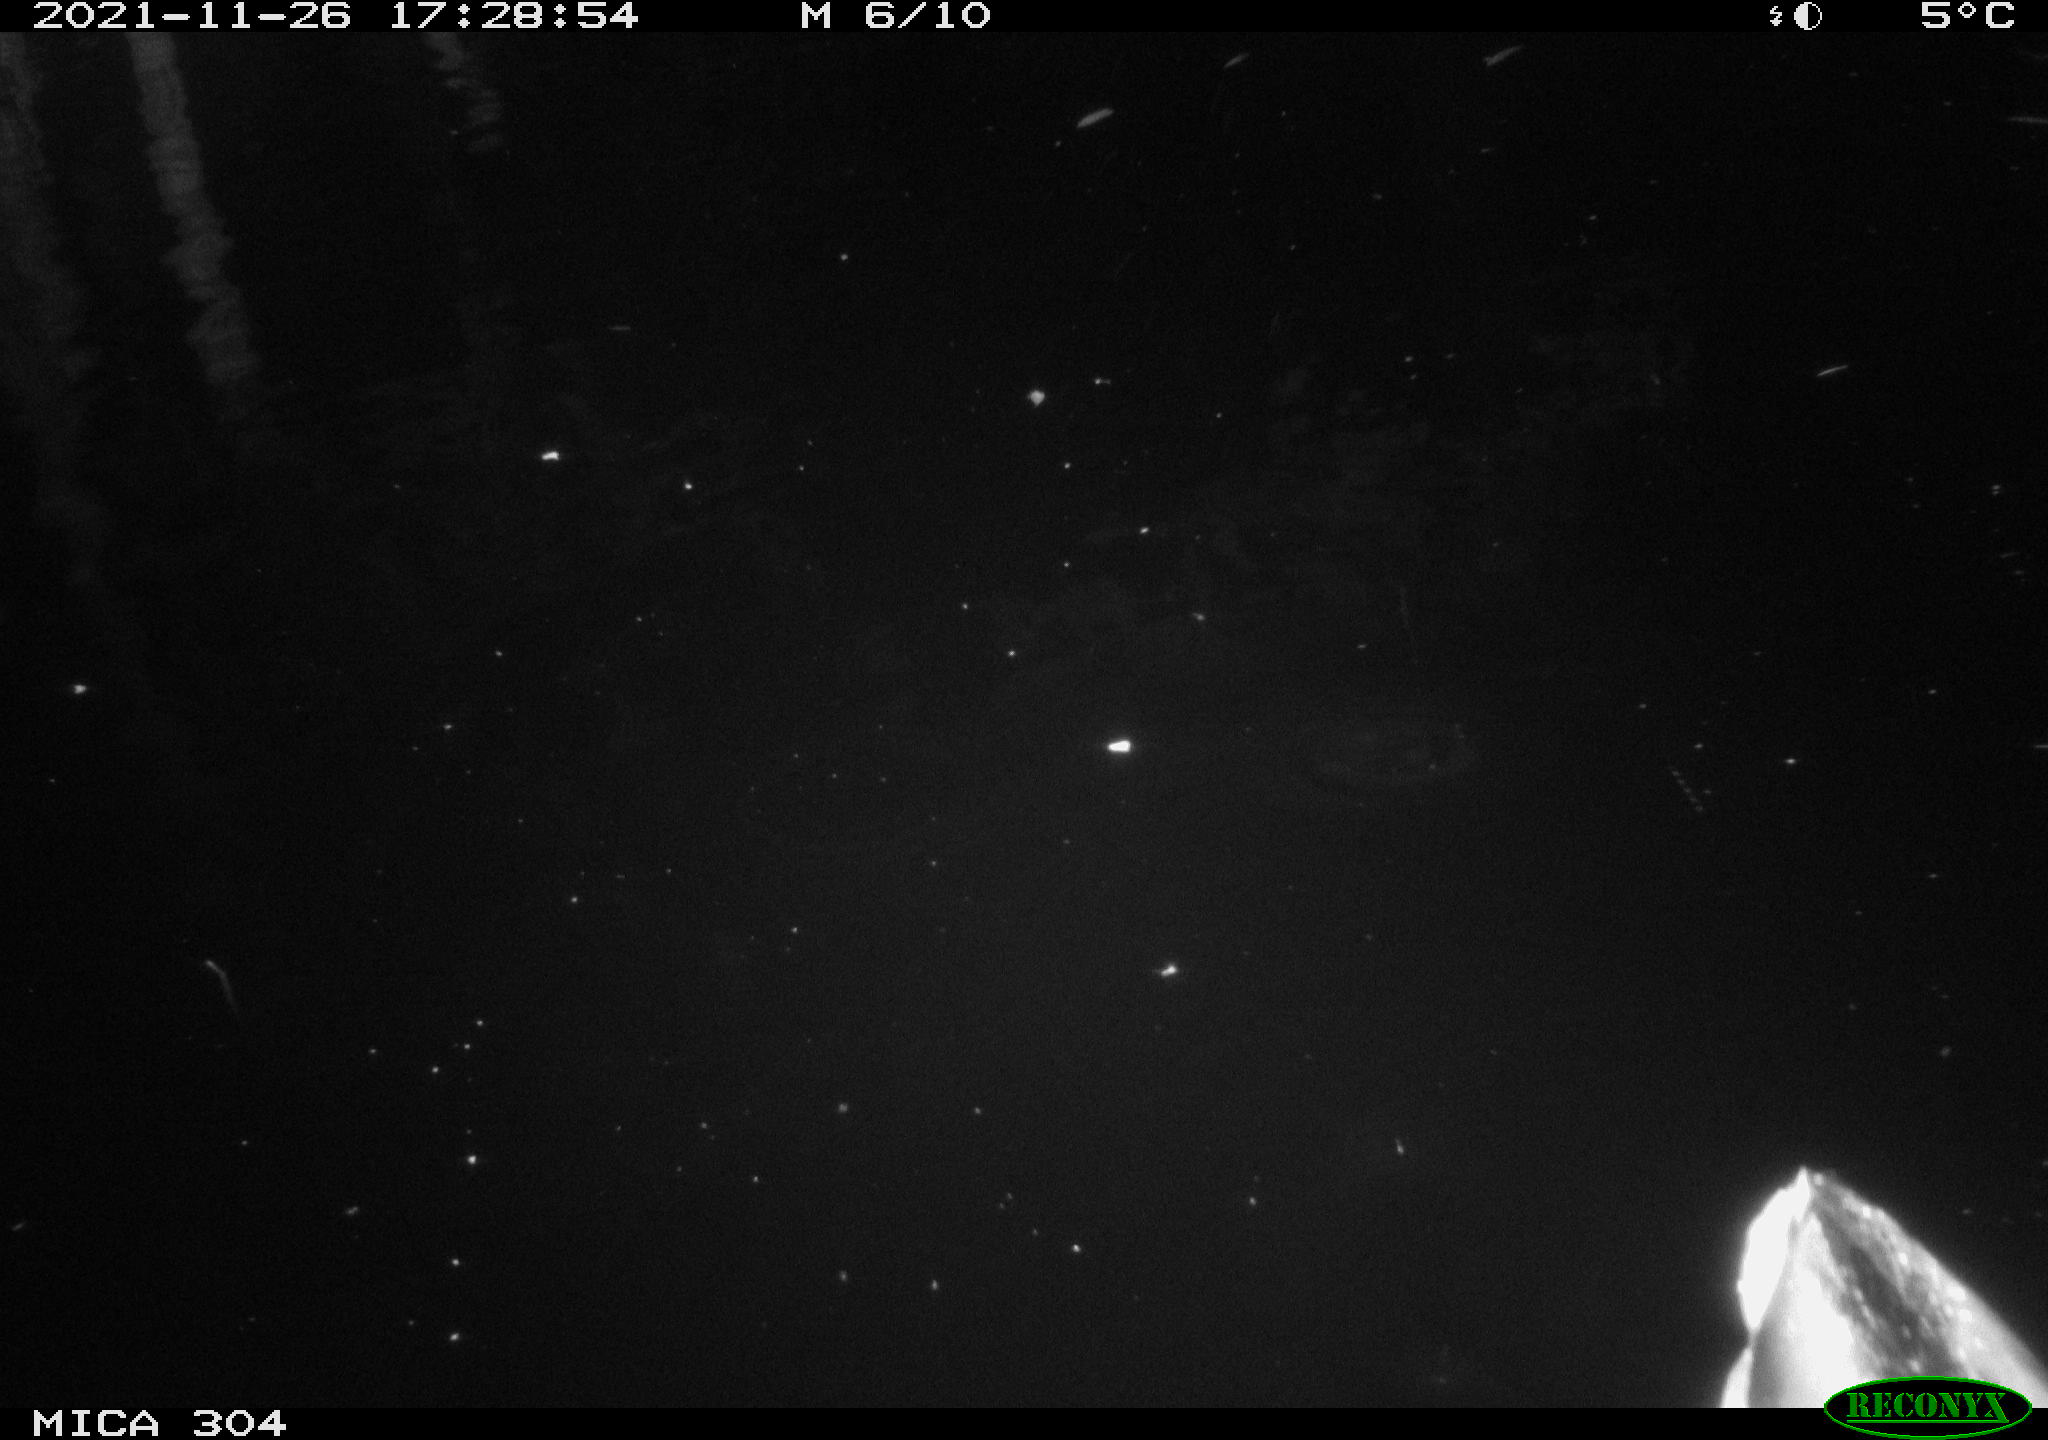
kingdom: Animalia
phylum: Chordata
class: Aves
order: Anseriformes
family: Anatidae
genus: Anas
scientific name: Anas platyrhynchos
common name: Mallard
